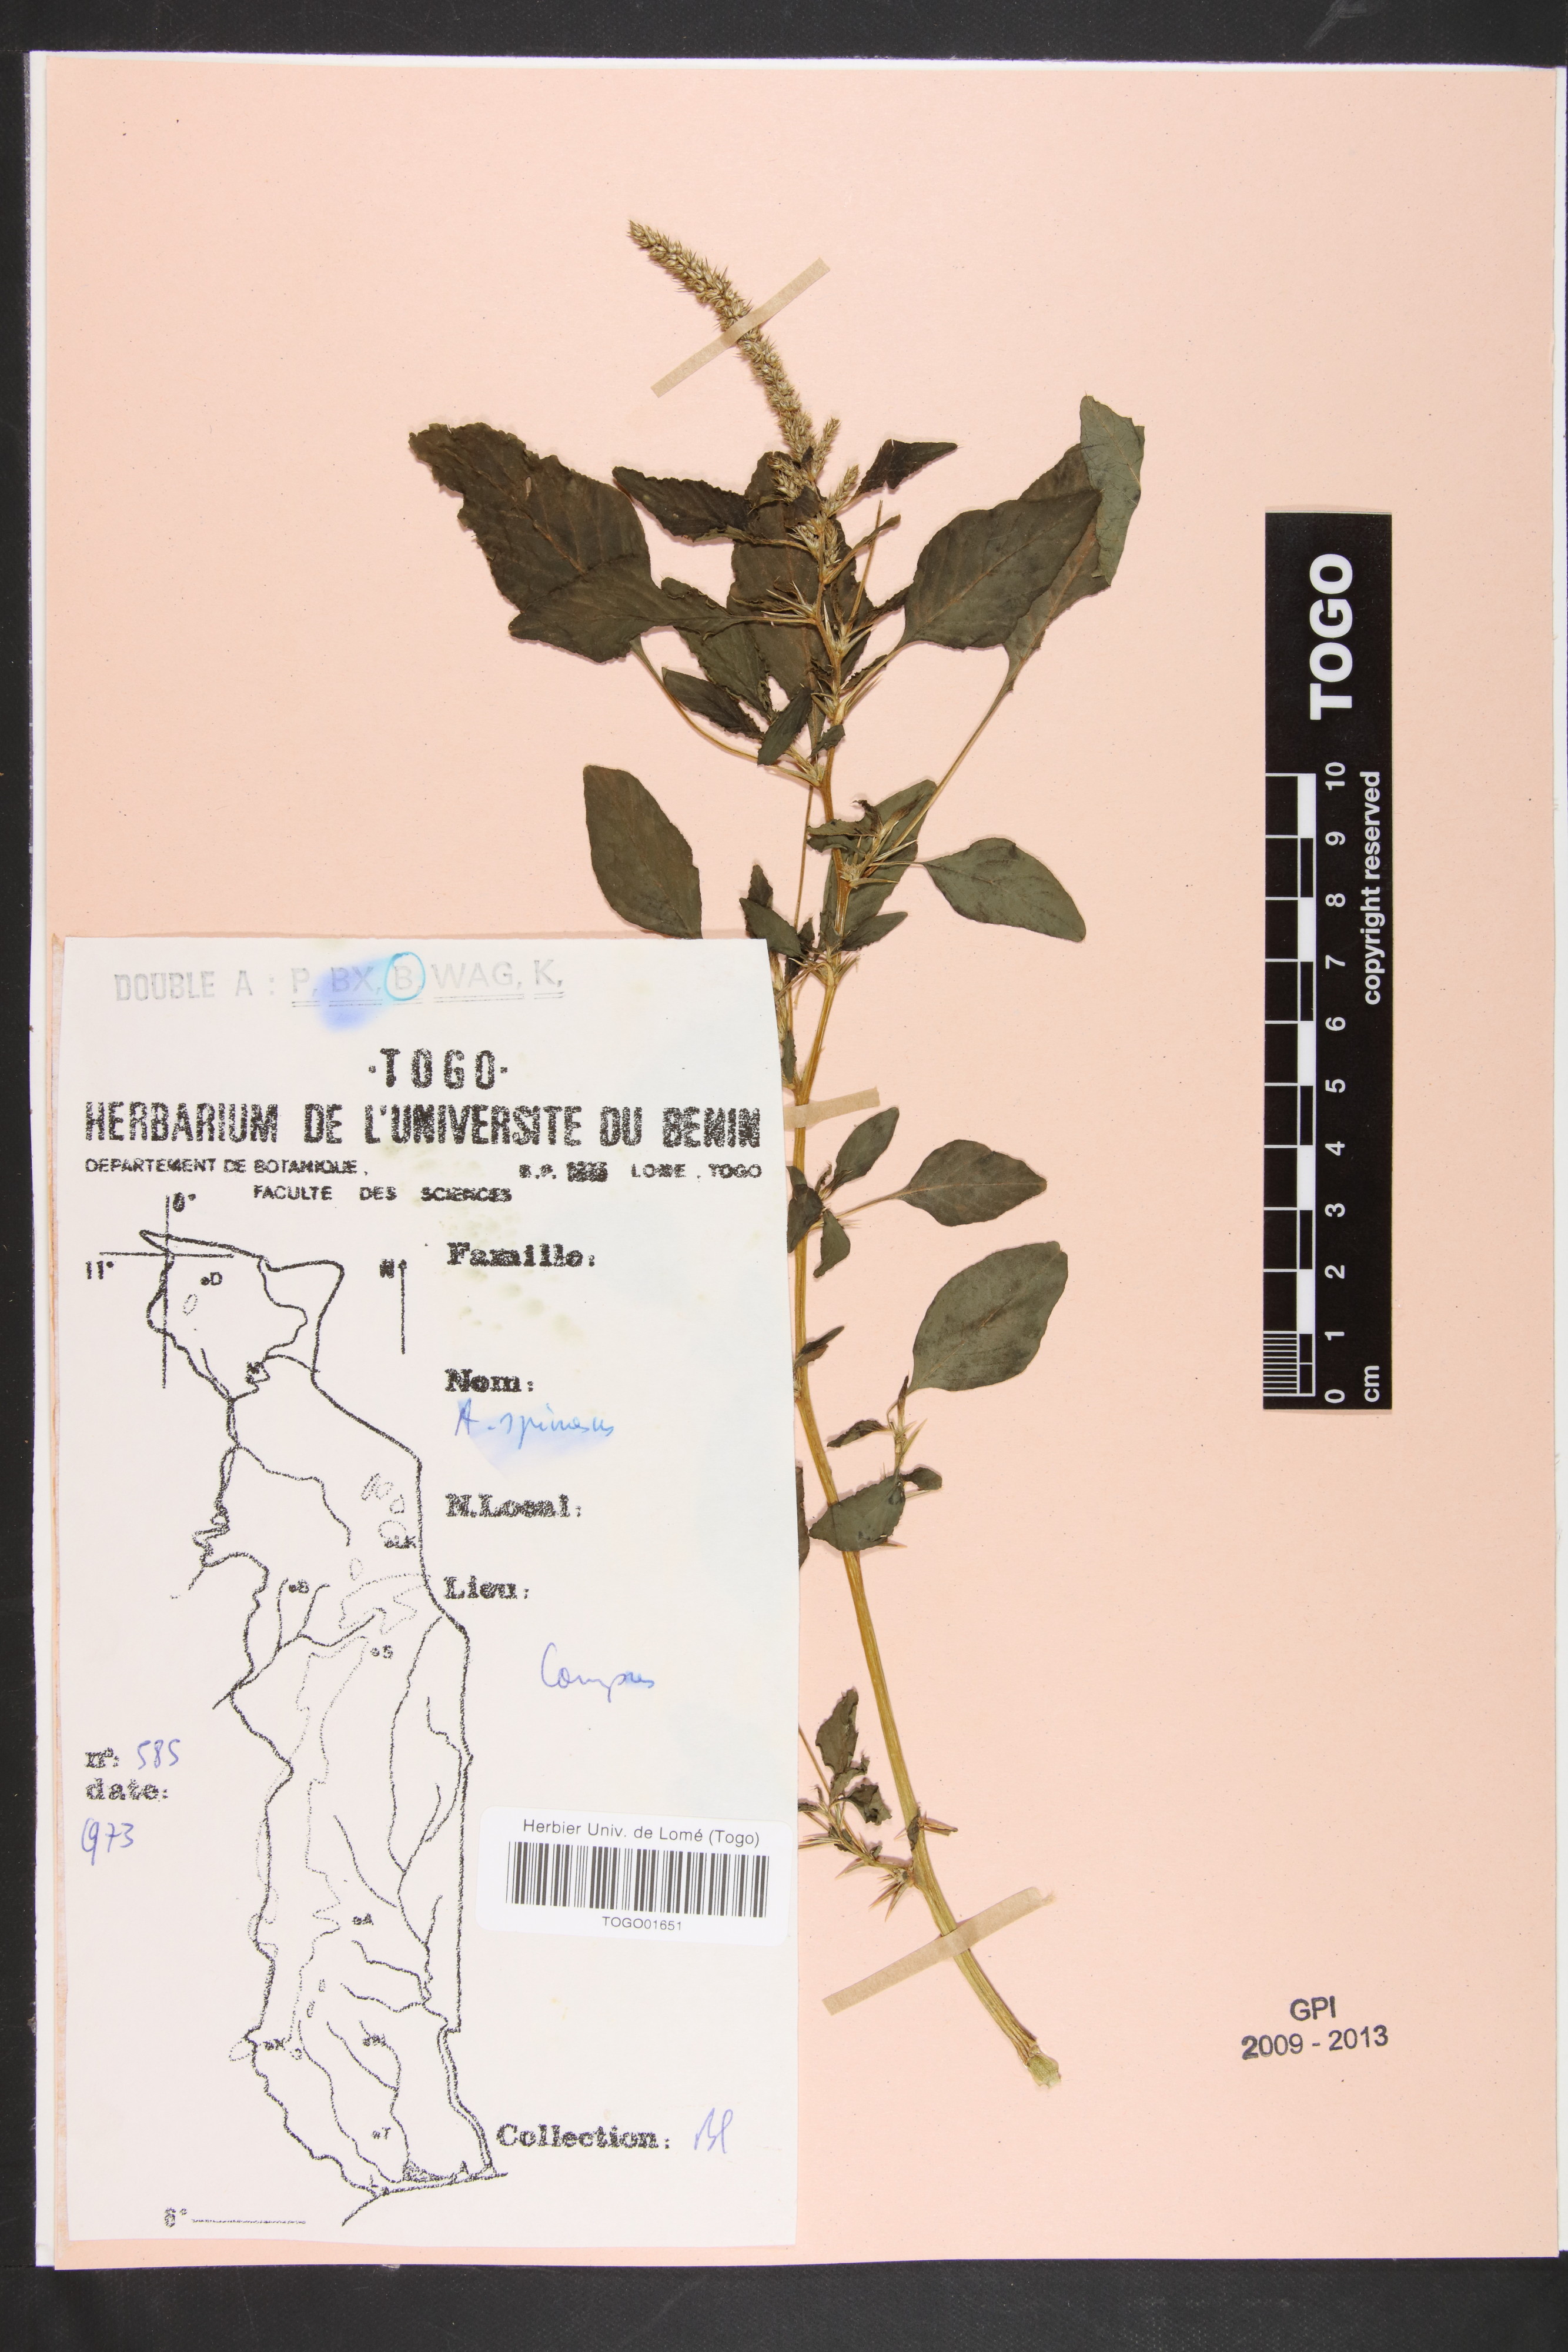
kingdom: Plantae
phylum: Tracheophyta
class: Magnoliopsida
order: Caryophyllales
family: Amaranthaceae
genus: Amaranthus
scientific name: Amaranthus spinosus
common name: Spiny amaranth
